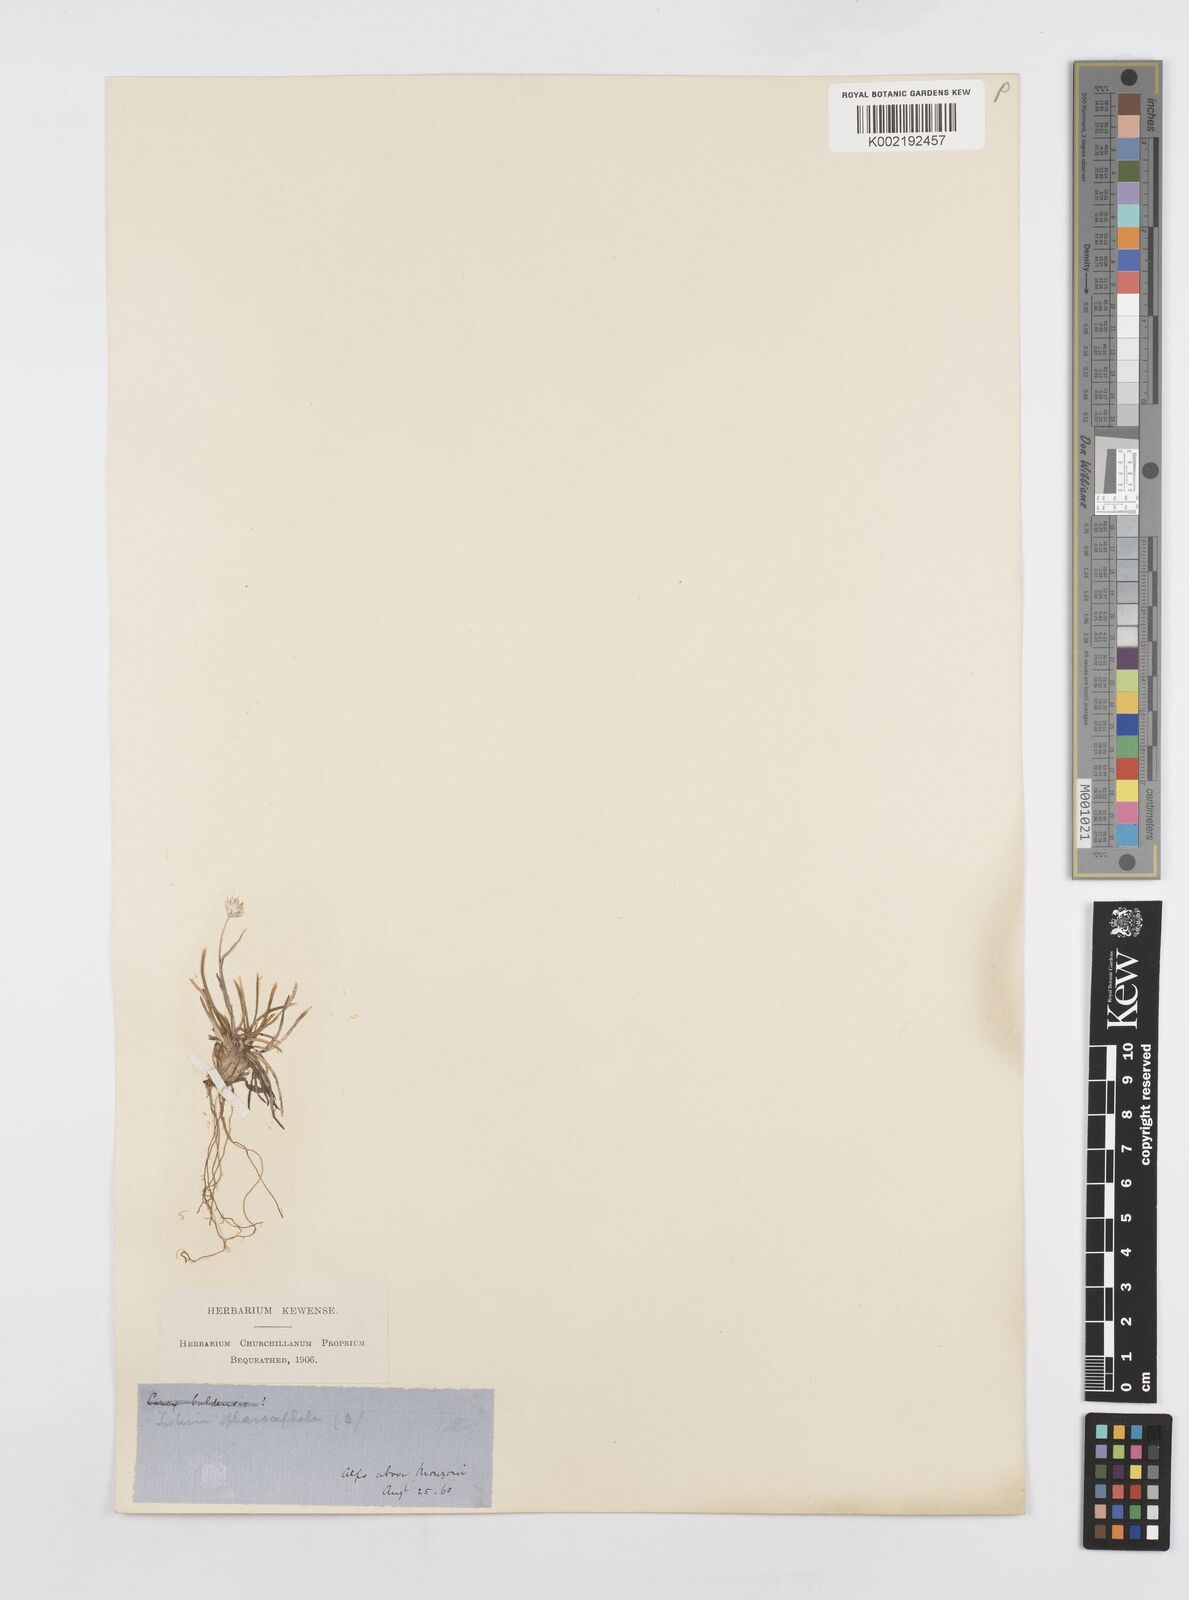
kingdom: Plantae
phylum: Tracheophyta
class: Liliopsida
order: Poales
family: Poaceae
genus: Sesleriella
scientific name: Sesleriella sphaerocephala
